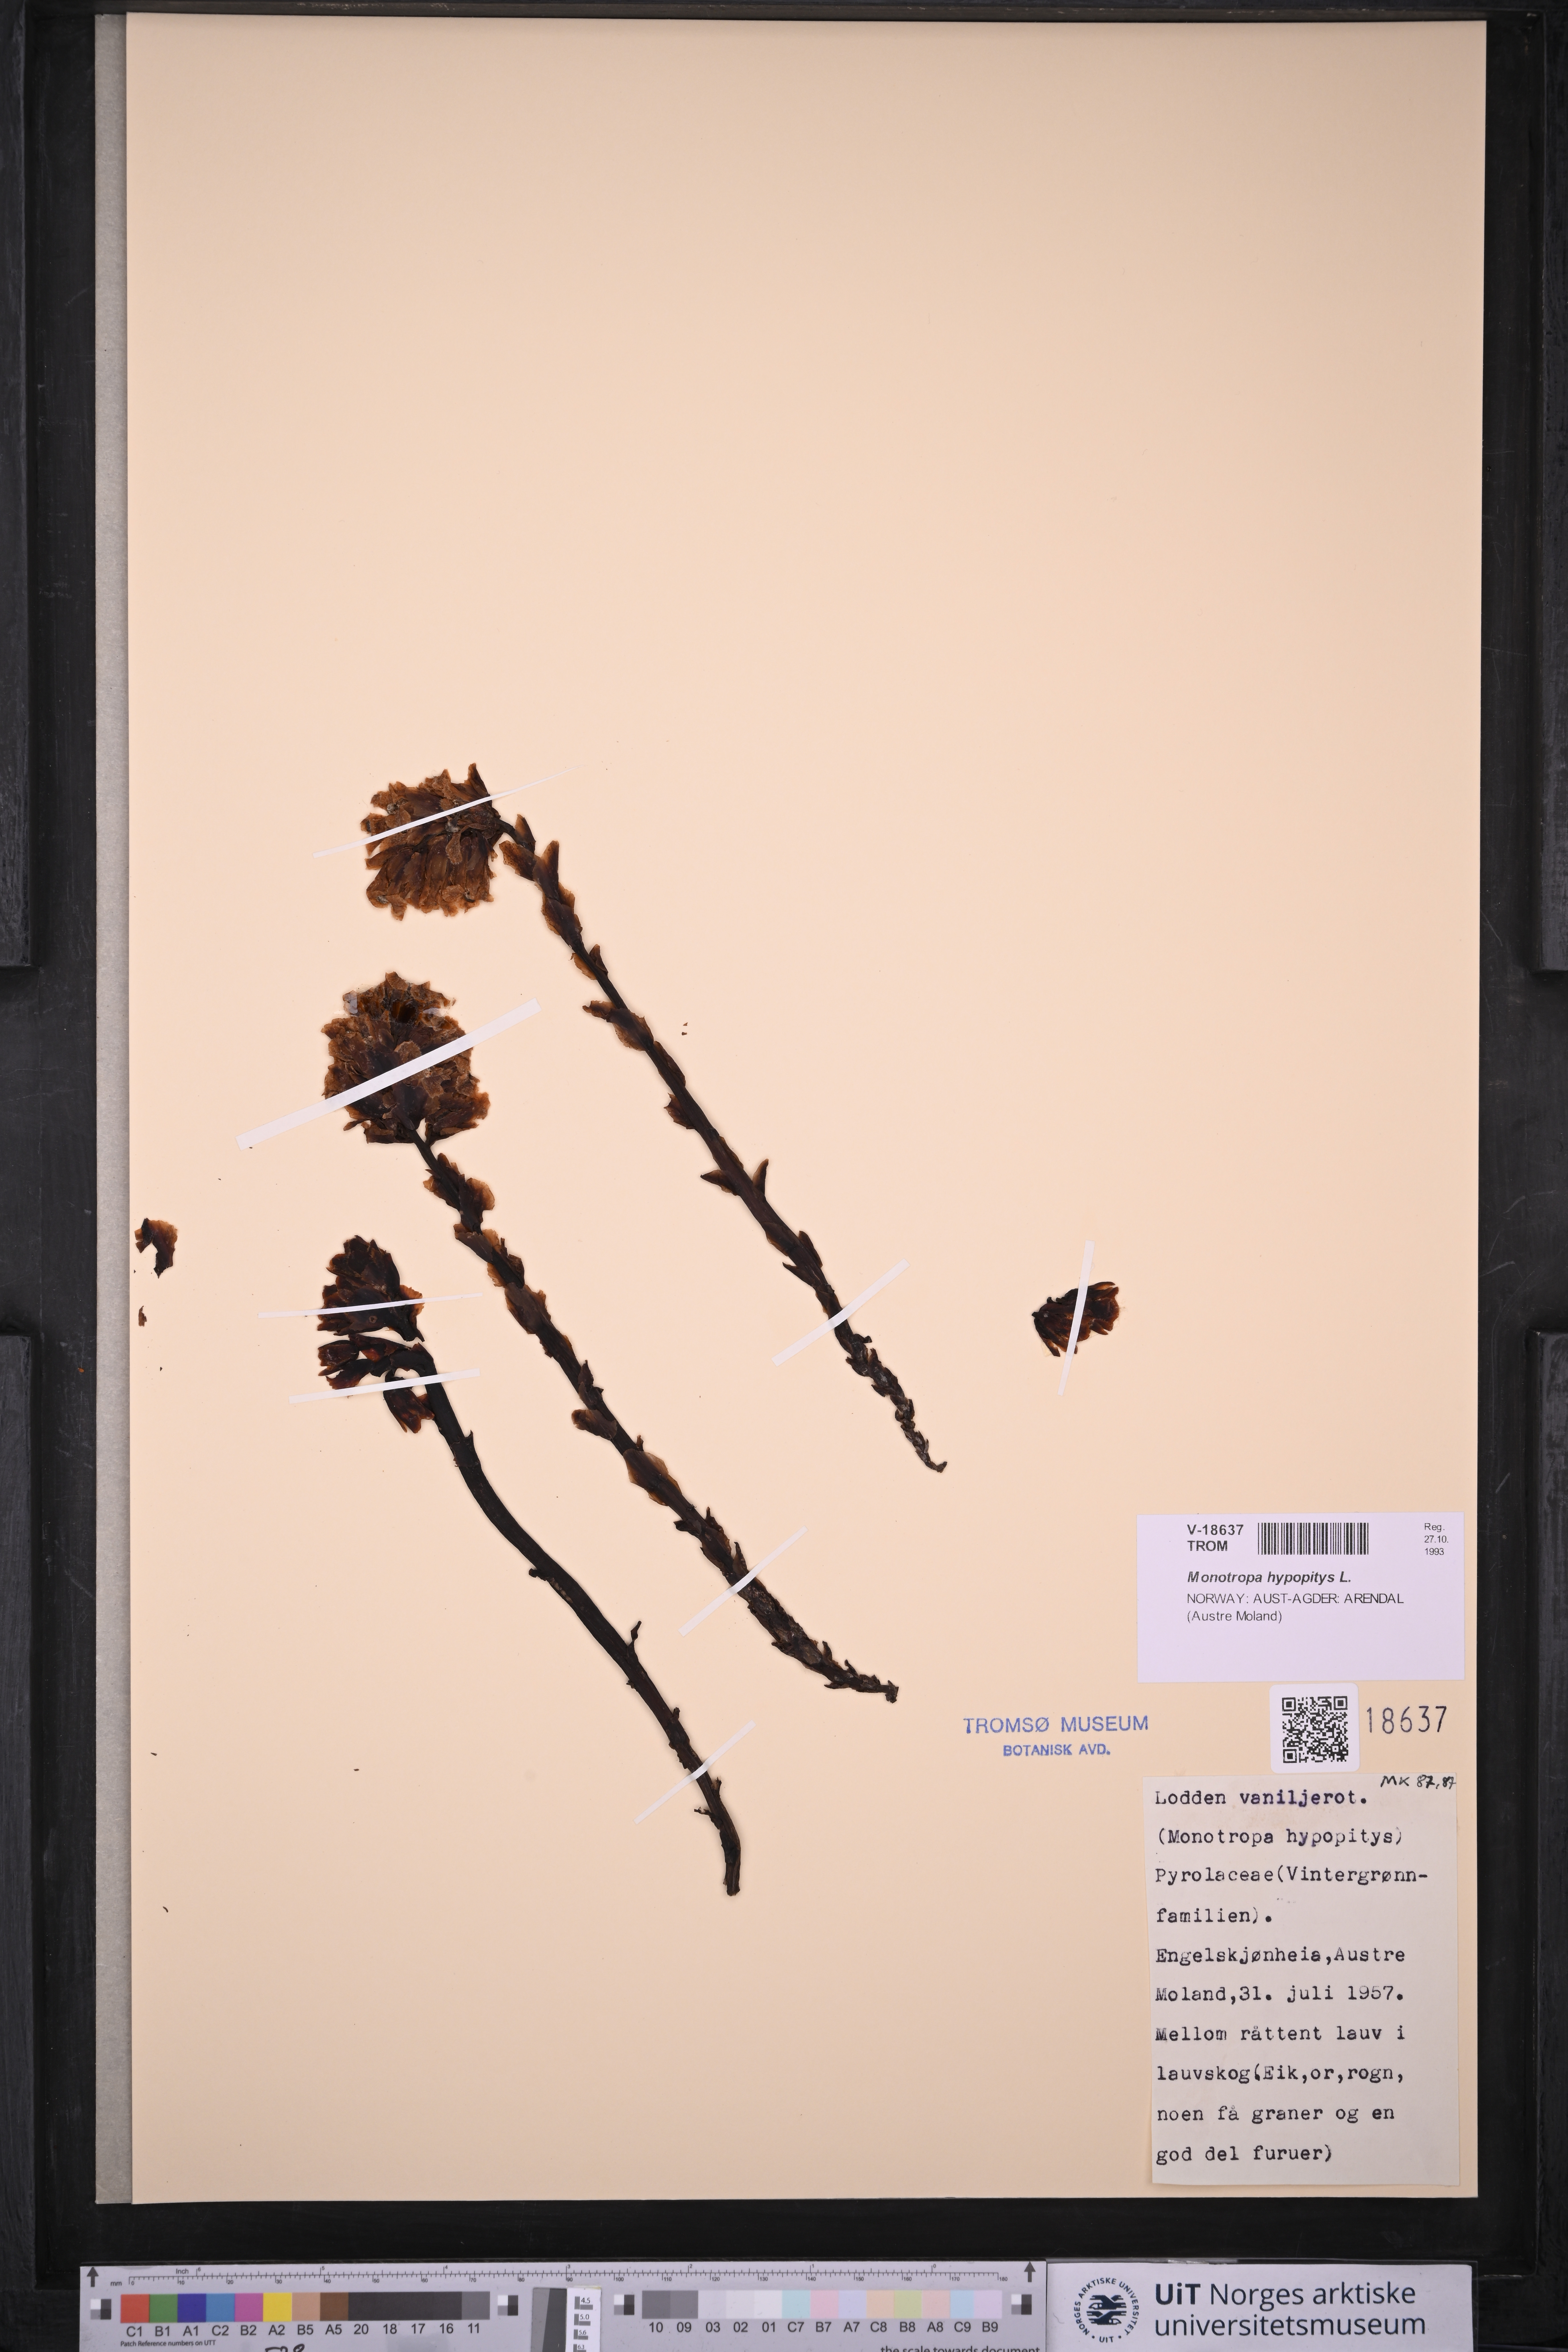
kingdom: Plantae
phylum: Tracheophyta
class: Magnoliopsida
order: Ericales
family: Ericaceae
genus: Hypopitys
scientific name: Hypopitys monotropa
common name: Yellow bird's-nest
